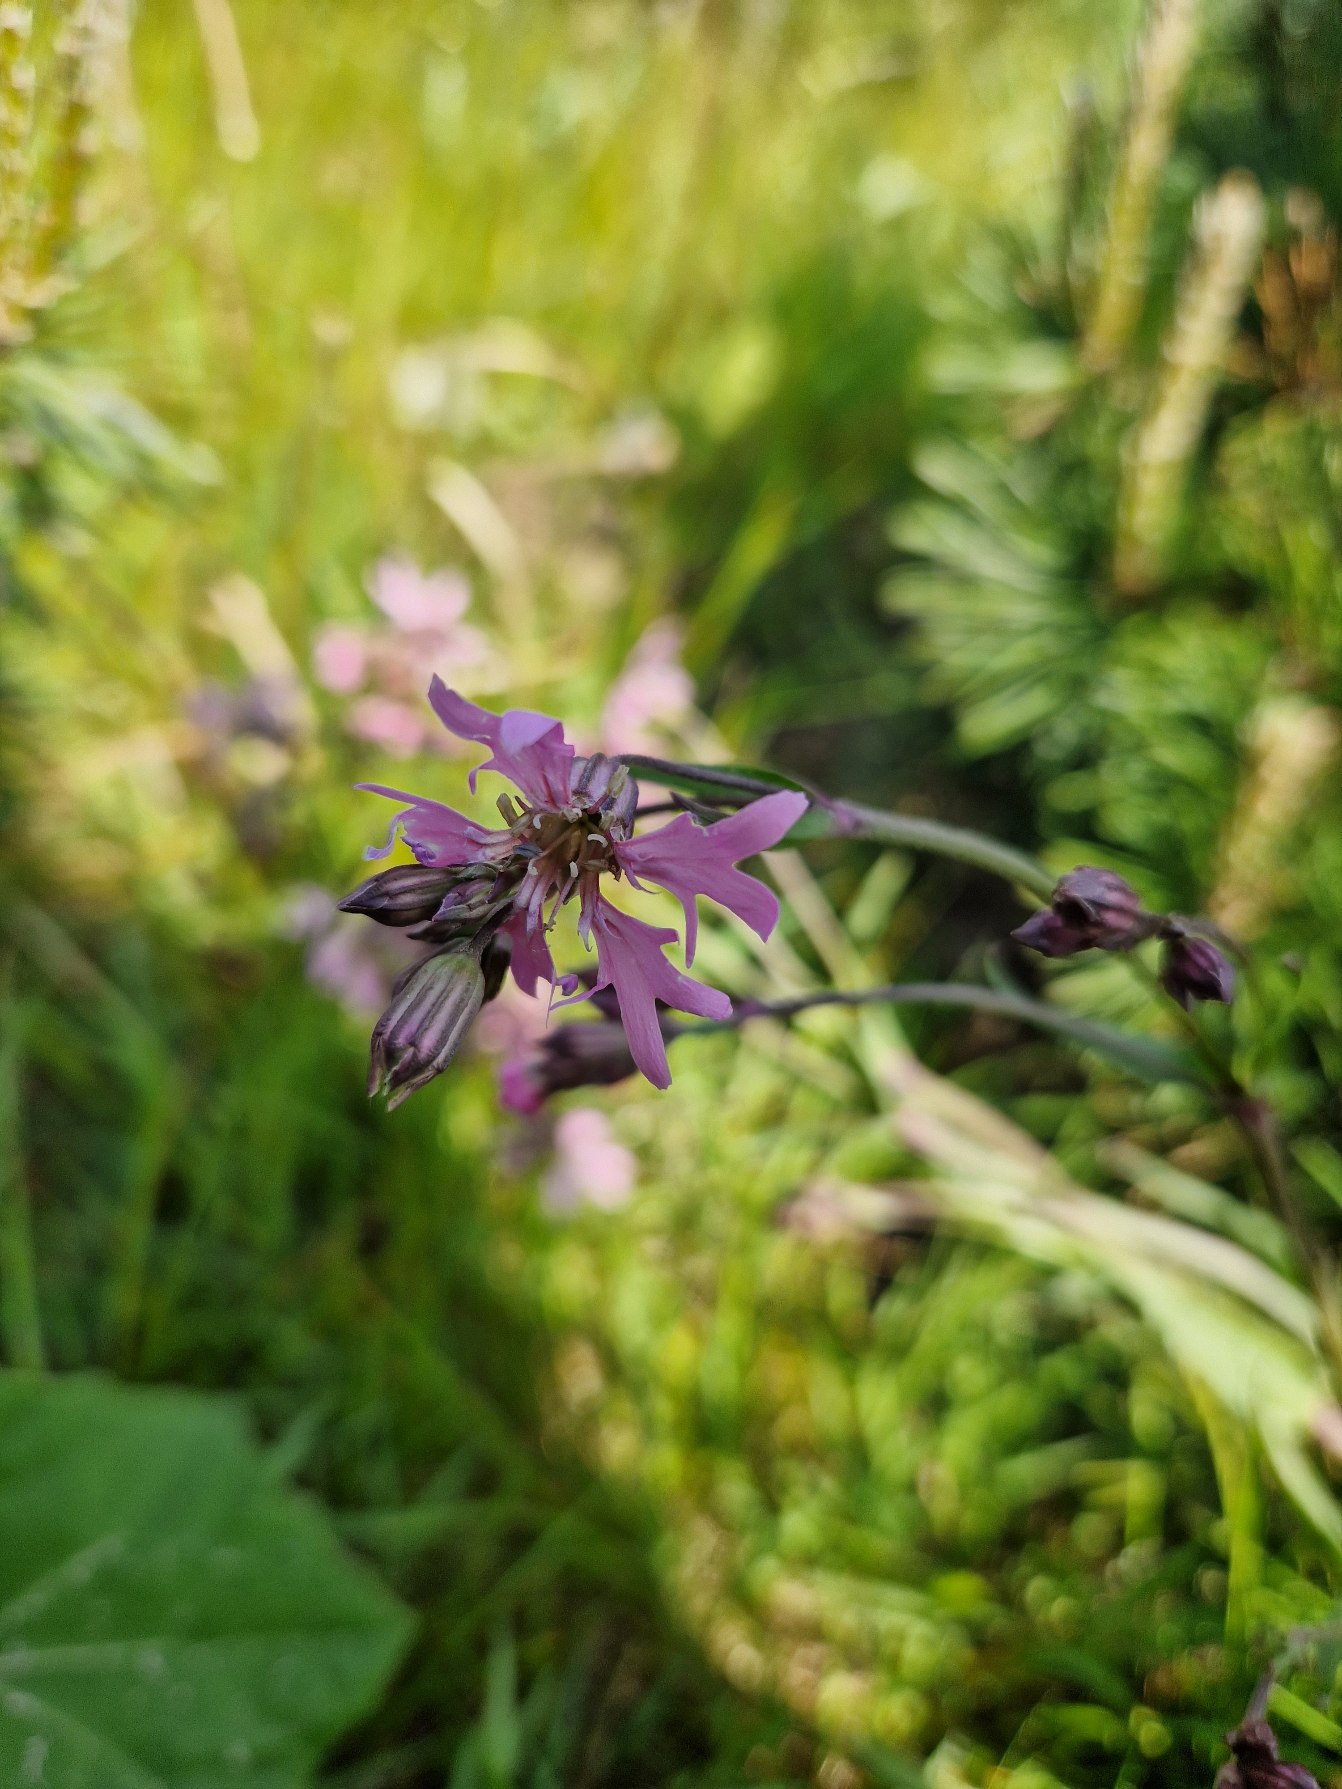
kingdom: Plantae
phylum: Tracheophyta
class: Magnoliopsida
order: Caryophyllales
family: Caryophyllaceae
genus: Silene
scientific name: Silene flos-cuculi
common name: Trævlekrone
